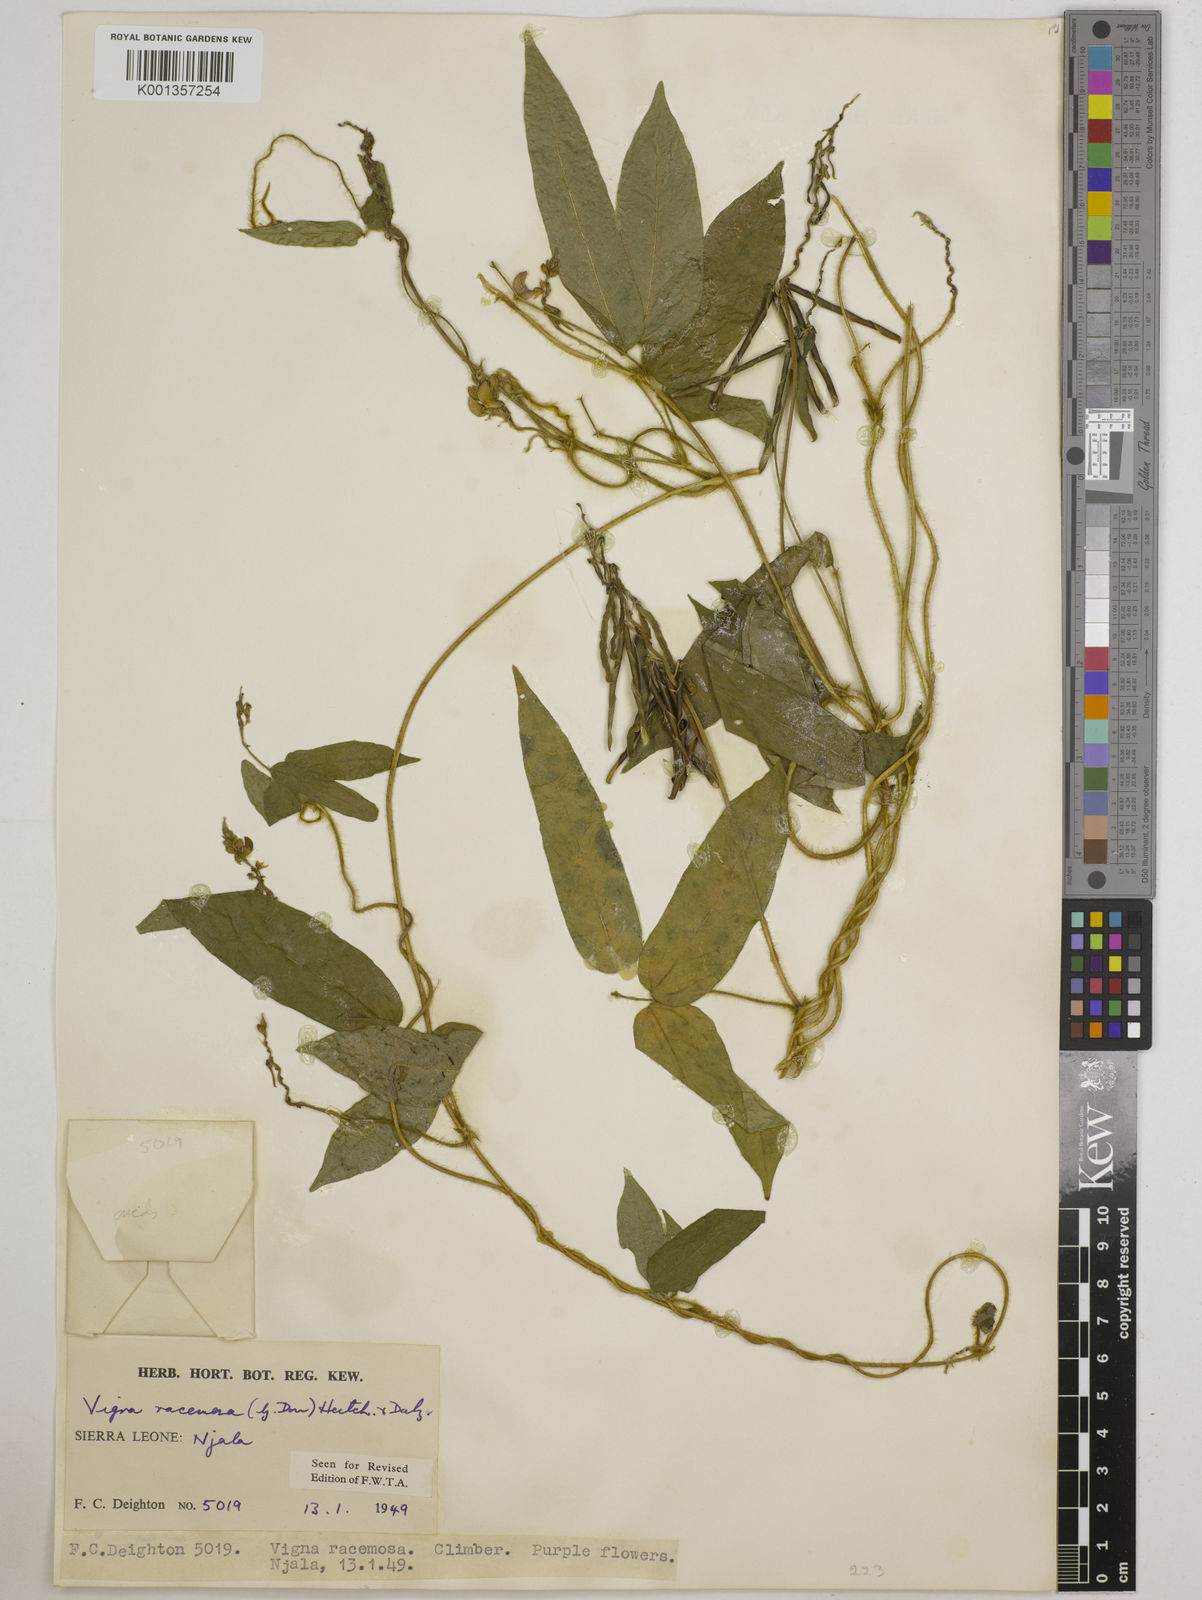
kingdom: Plantae
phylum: Tracheophyta
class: Magnoliopsida
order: Fabales
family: Fabaceae
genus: Vigna
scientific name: Vigna racemosa
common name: Beans not eaten
